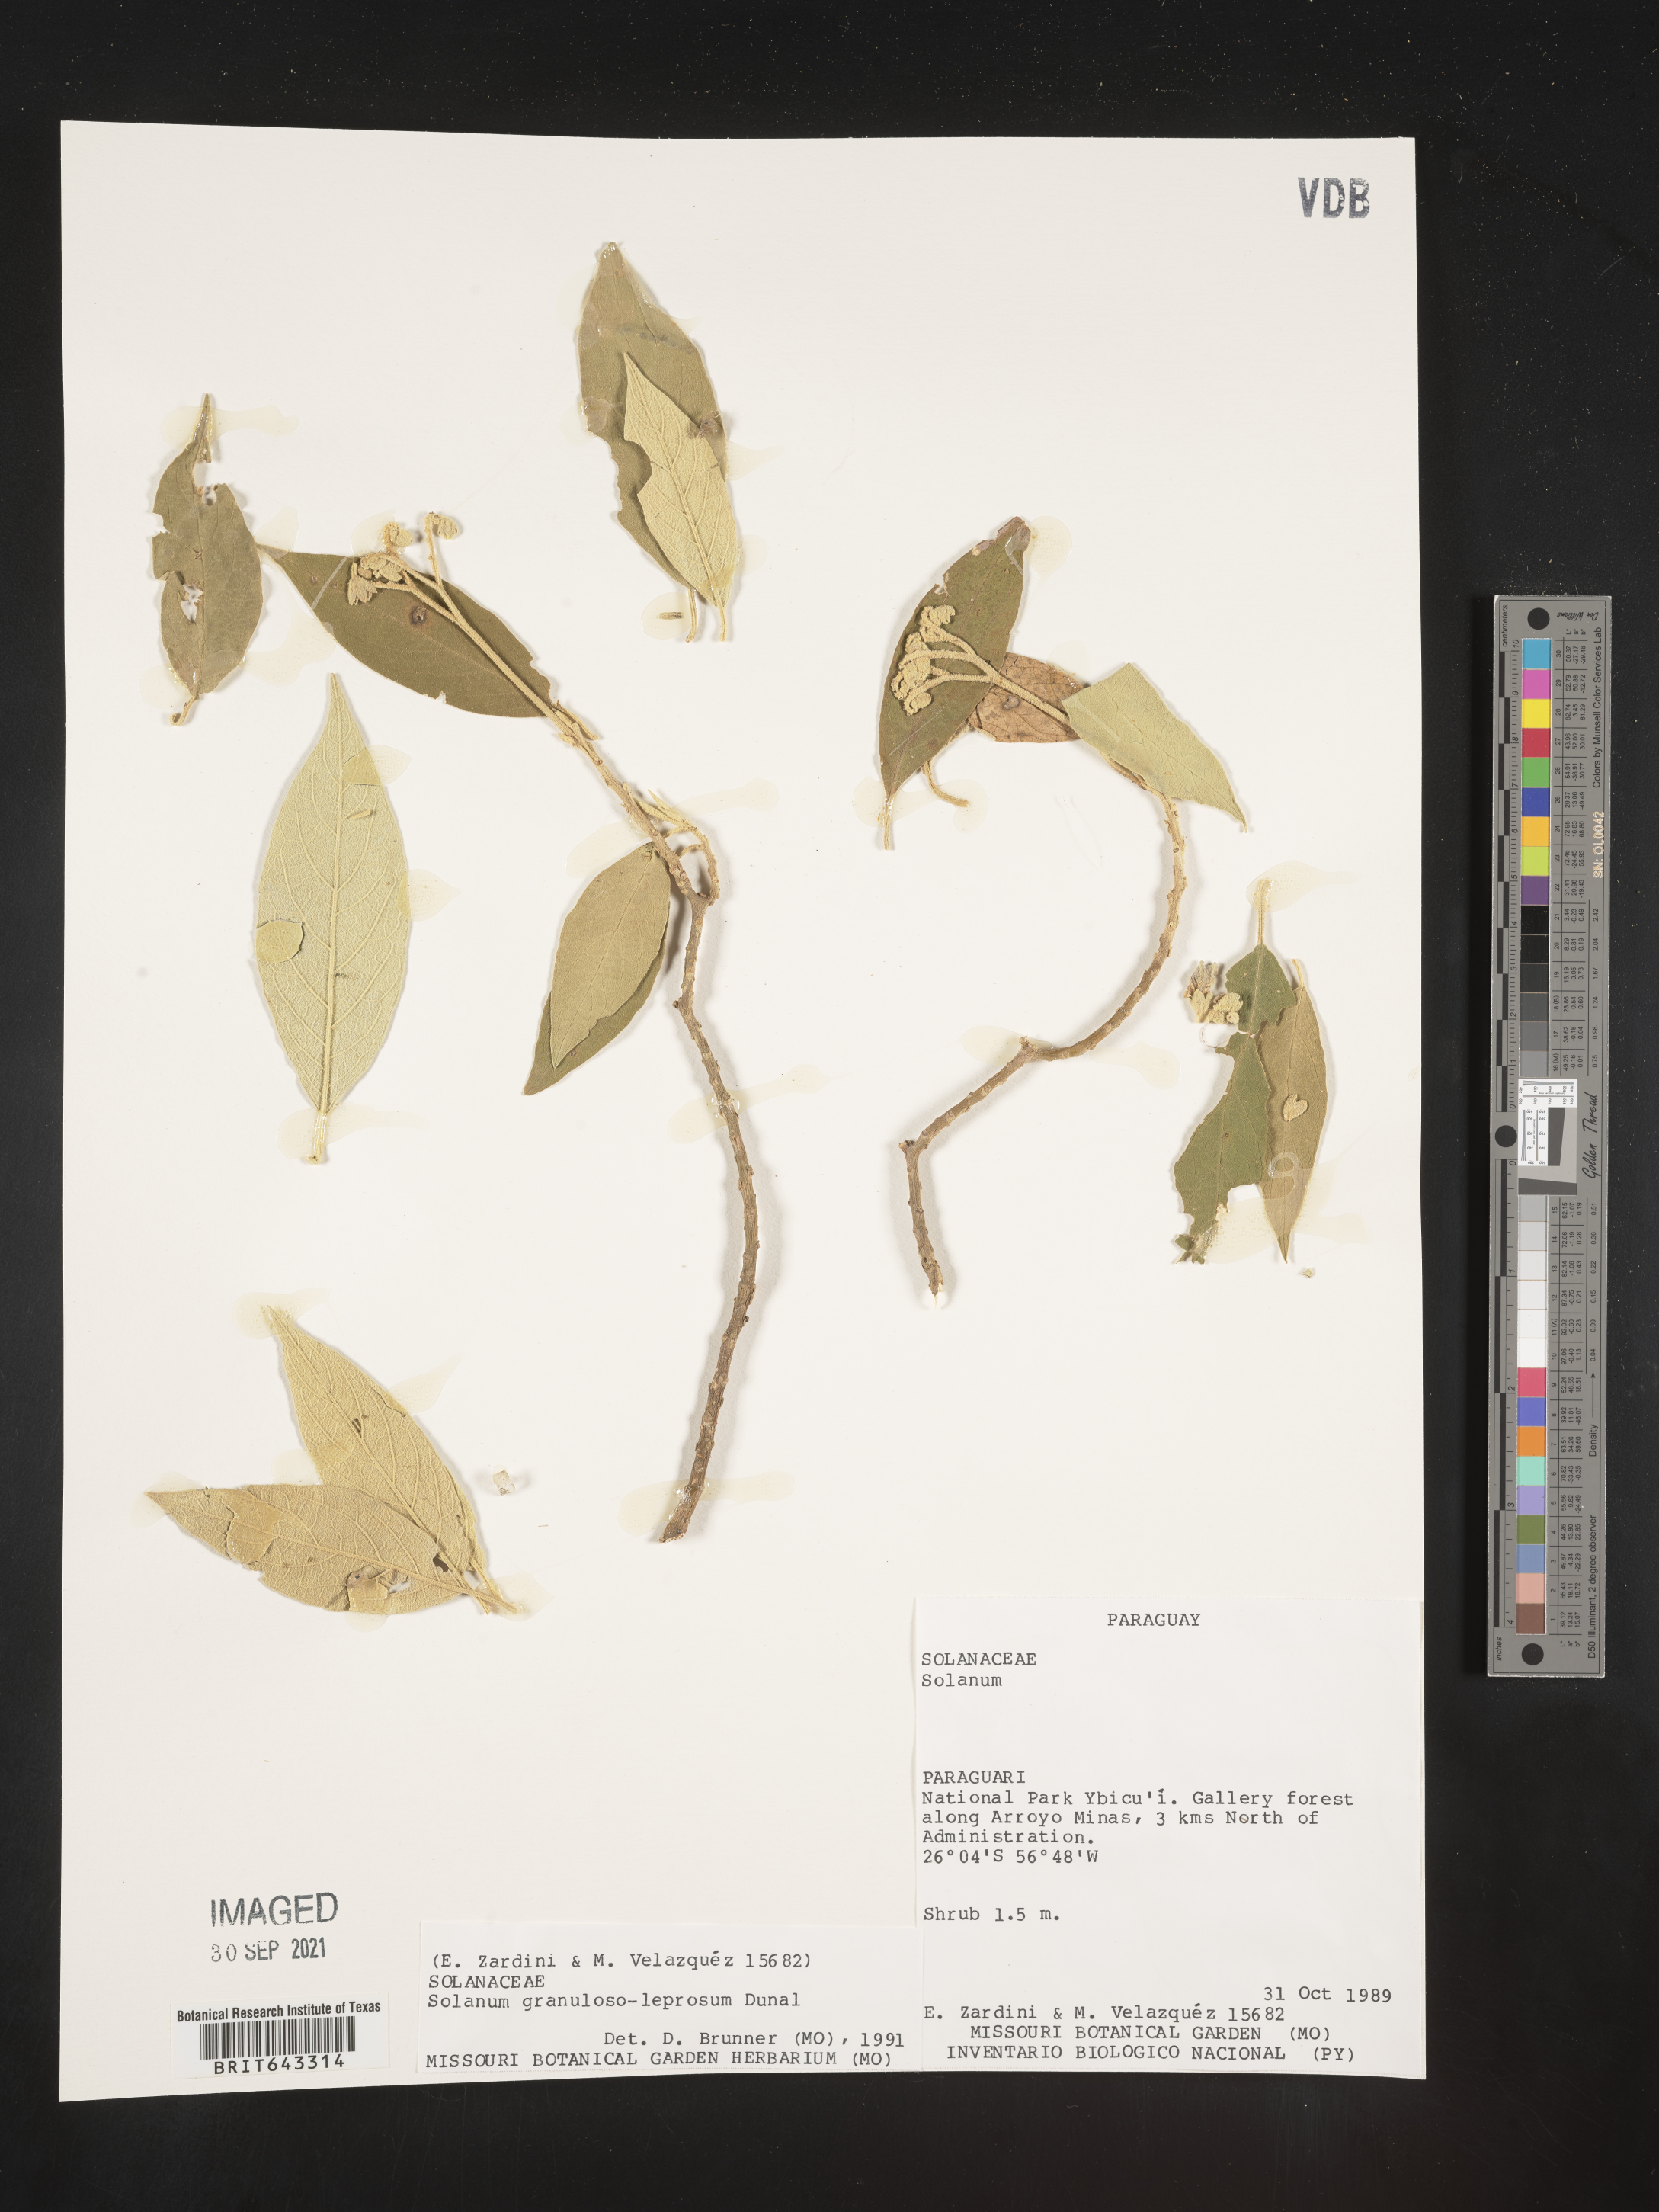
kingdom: Plantae
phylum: Tracheophyta
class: Magnoliopsida
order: Solanales
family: Solanaceae
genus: Solanum
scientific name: Solanum
